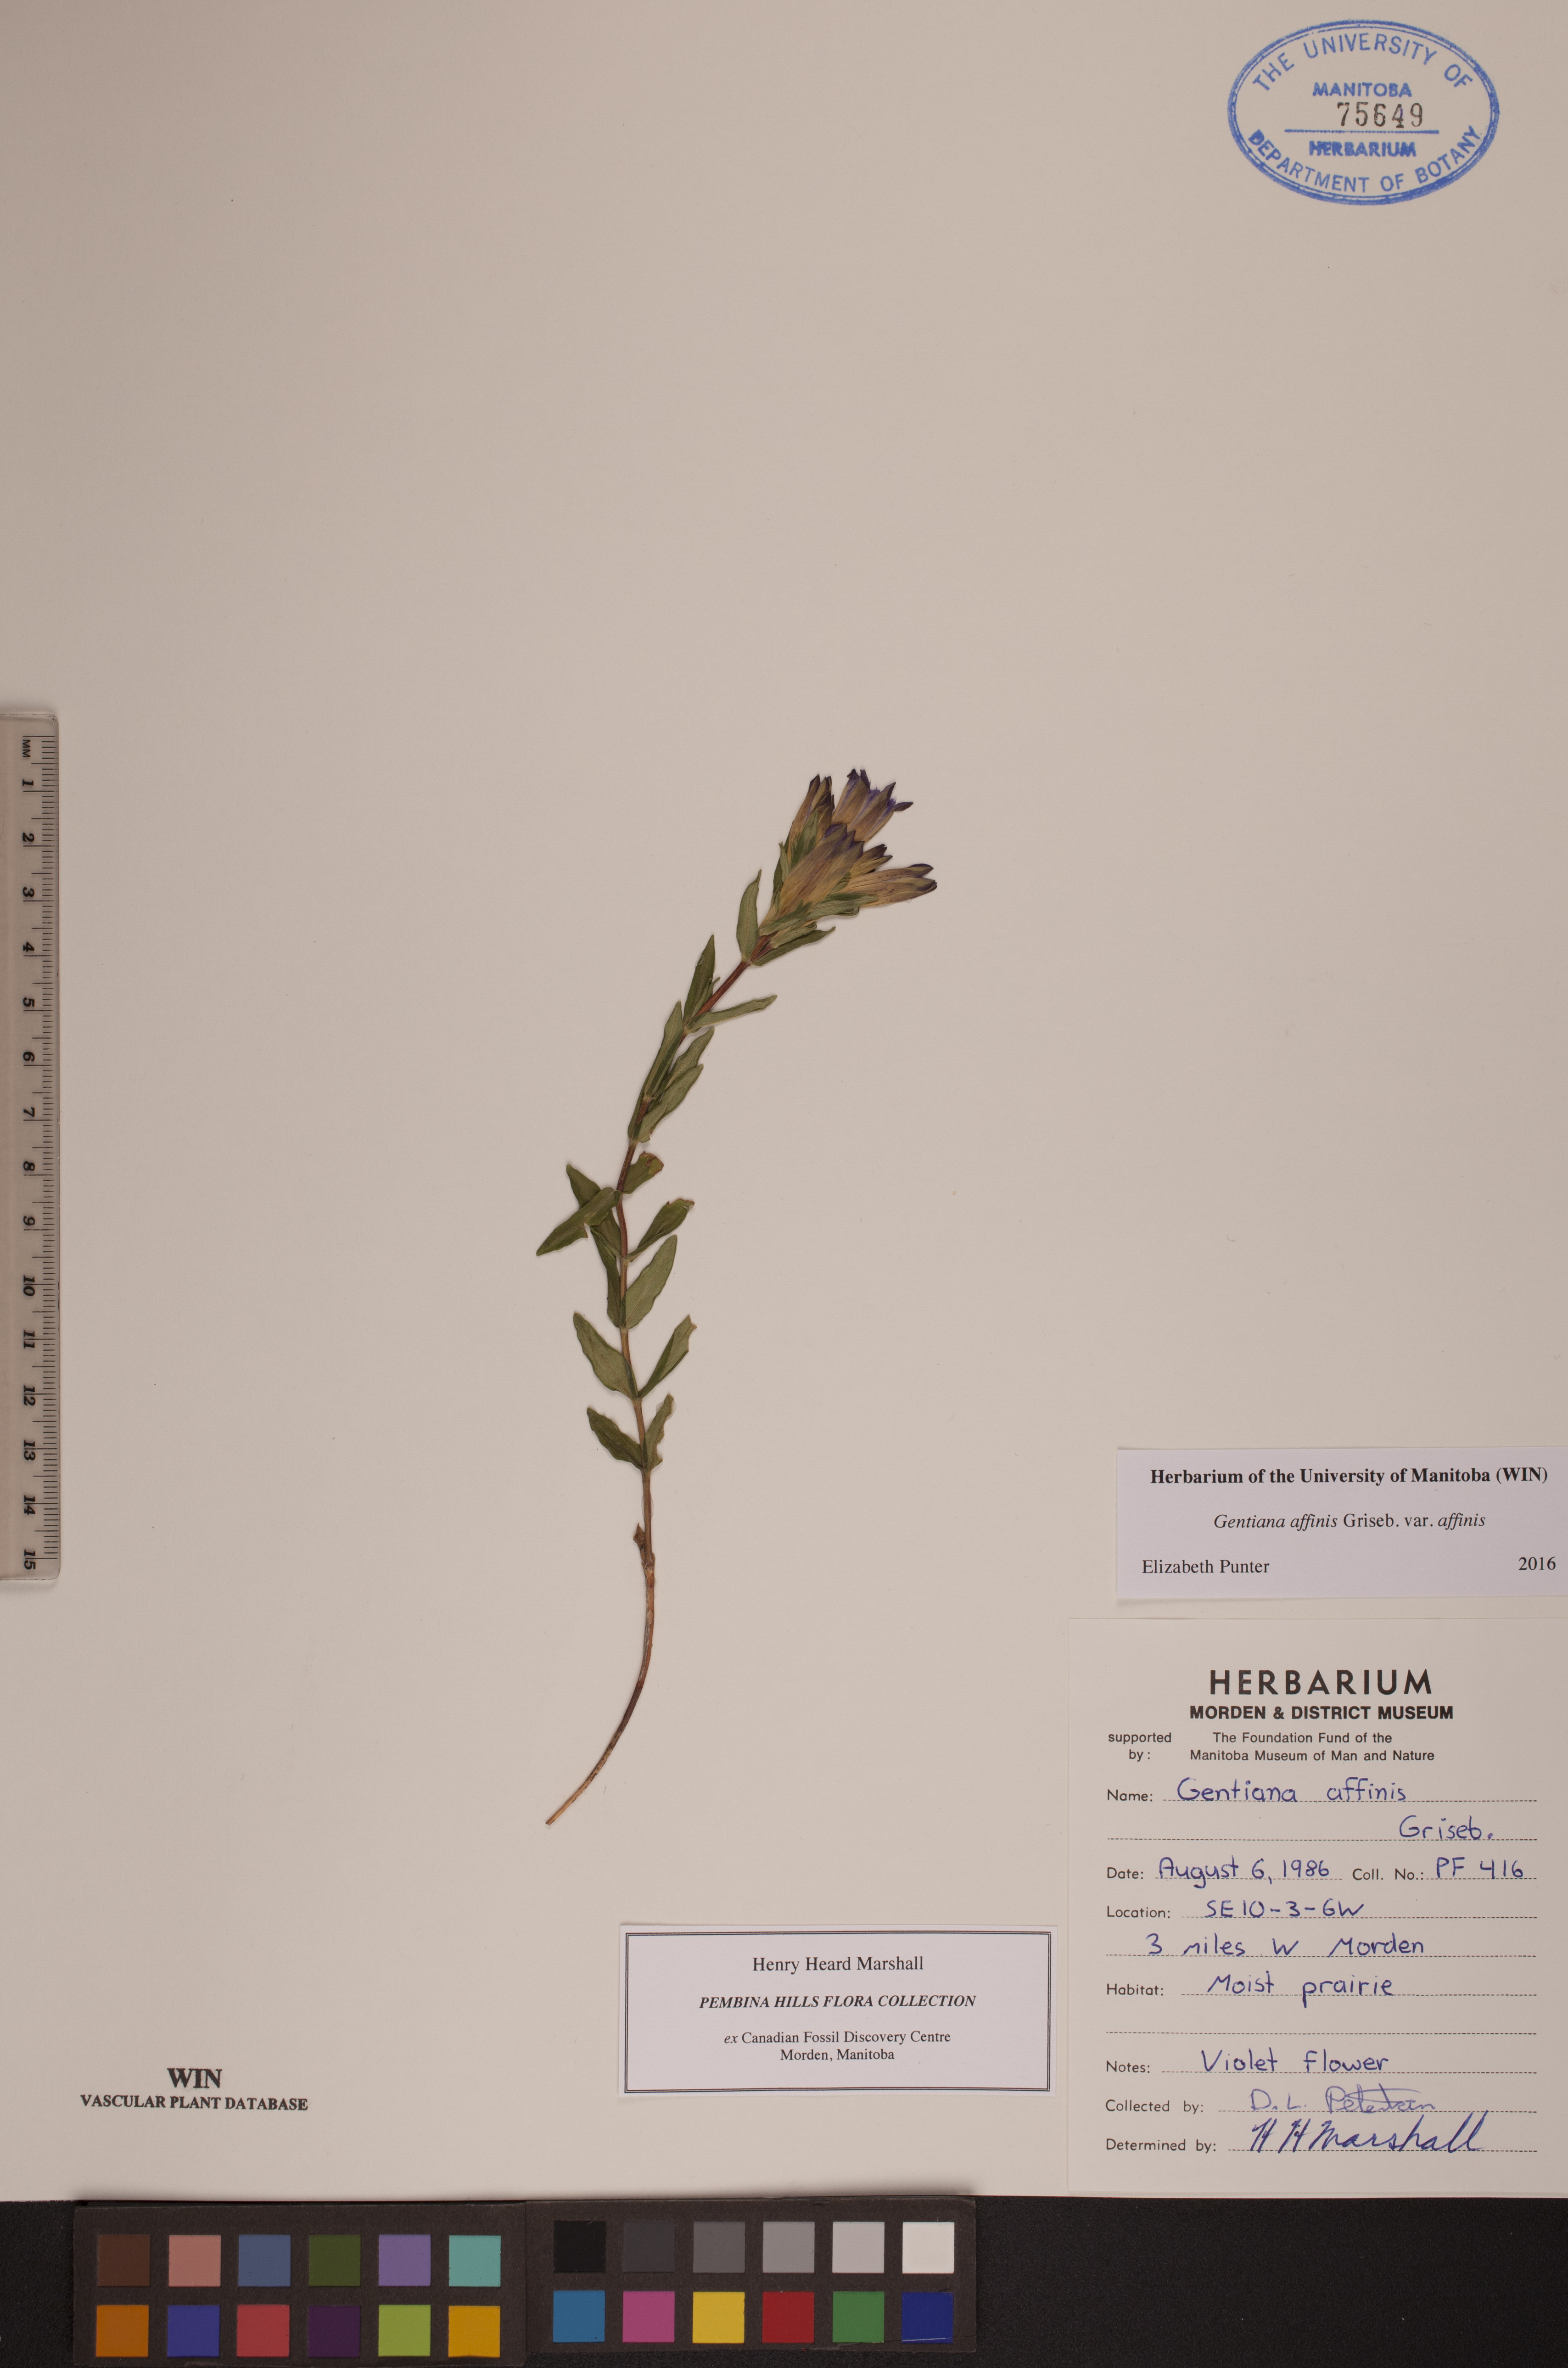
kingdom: Plantae
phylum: Tracheophyta
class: Magnoliopsida
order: Gentianales
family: Gentianaceae
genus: Gentiana
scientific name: Gentiana affinis
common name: Rocky mountain gentian
